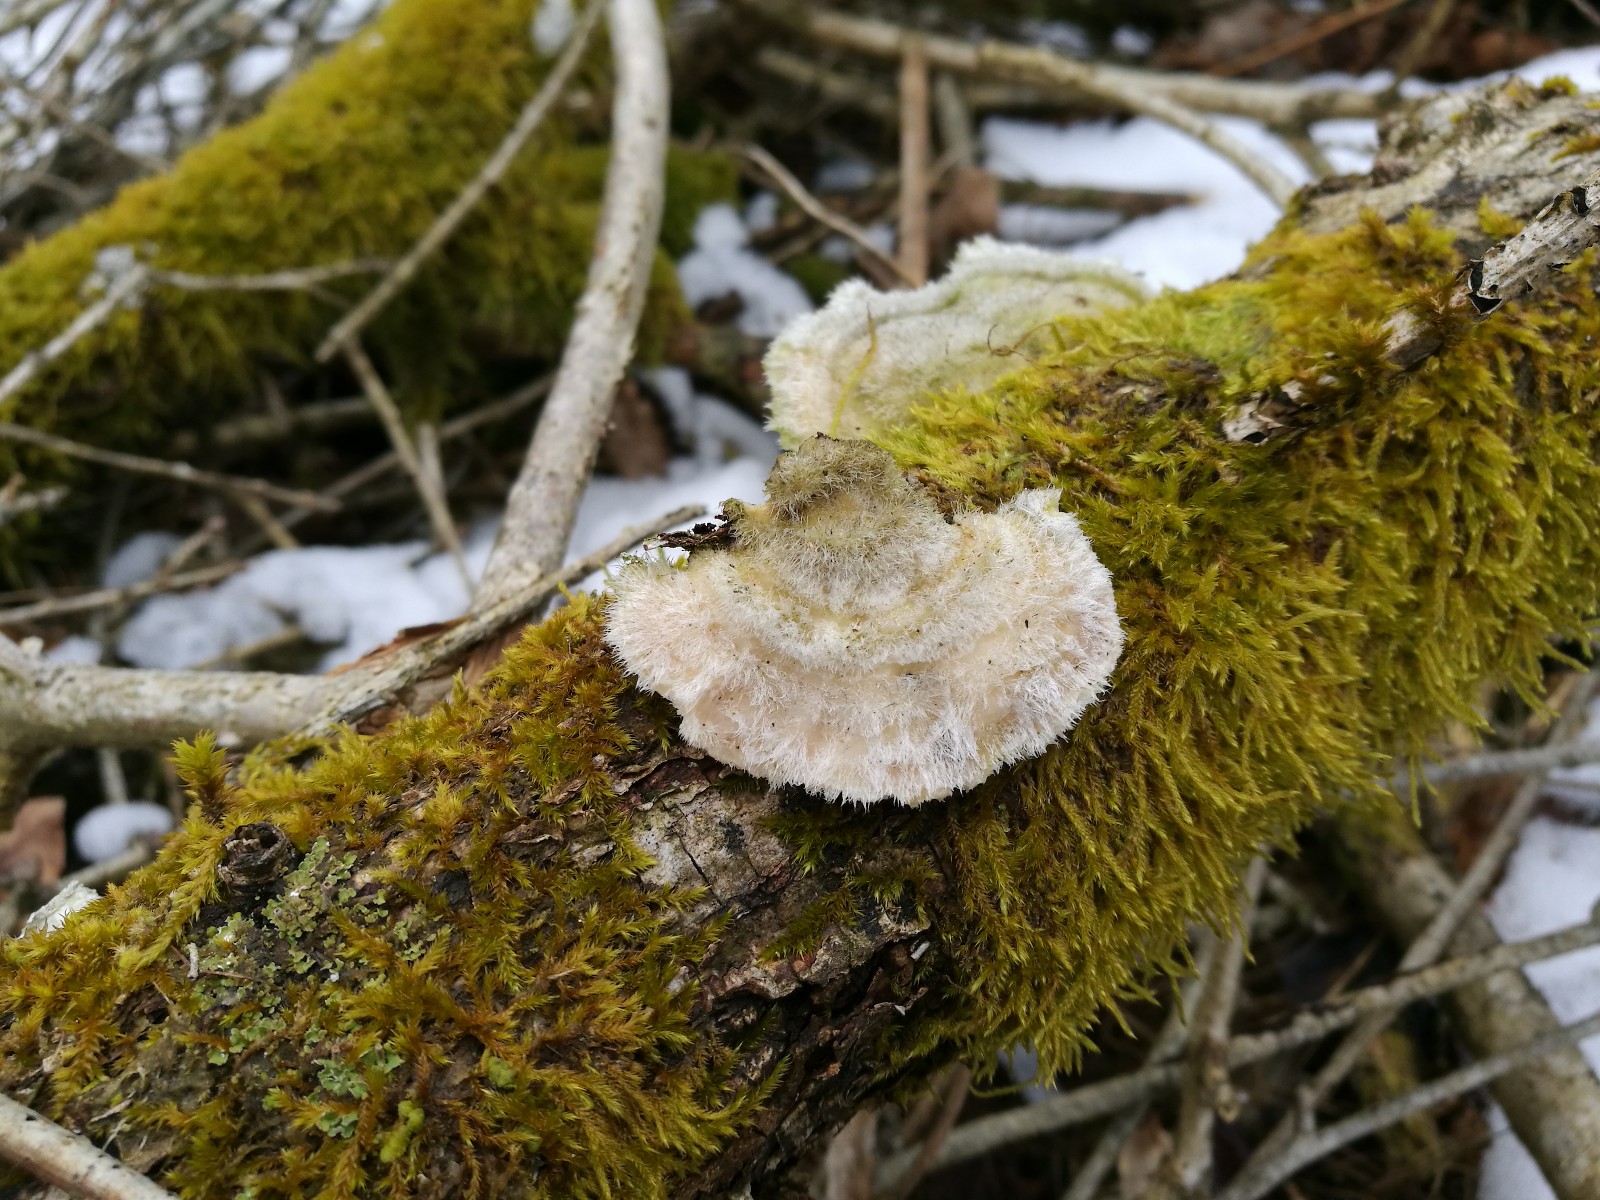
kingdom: Fungi
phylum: Basidiomycota
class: Agaricomycetes
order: Polyporales
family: Polyporaceae
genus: Trametes
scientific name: Trametes hirsuta
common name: håret læderporesvamp
